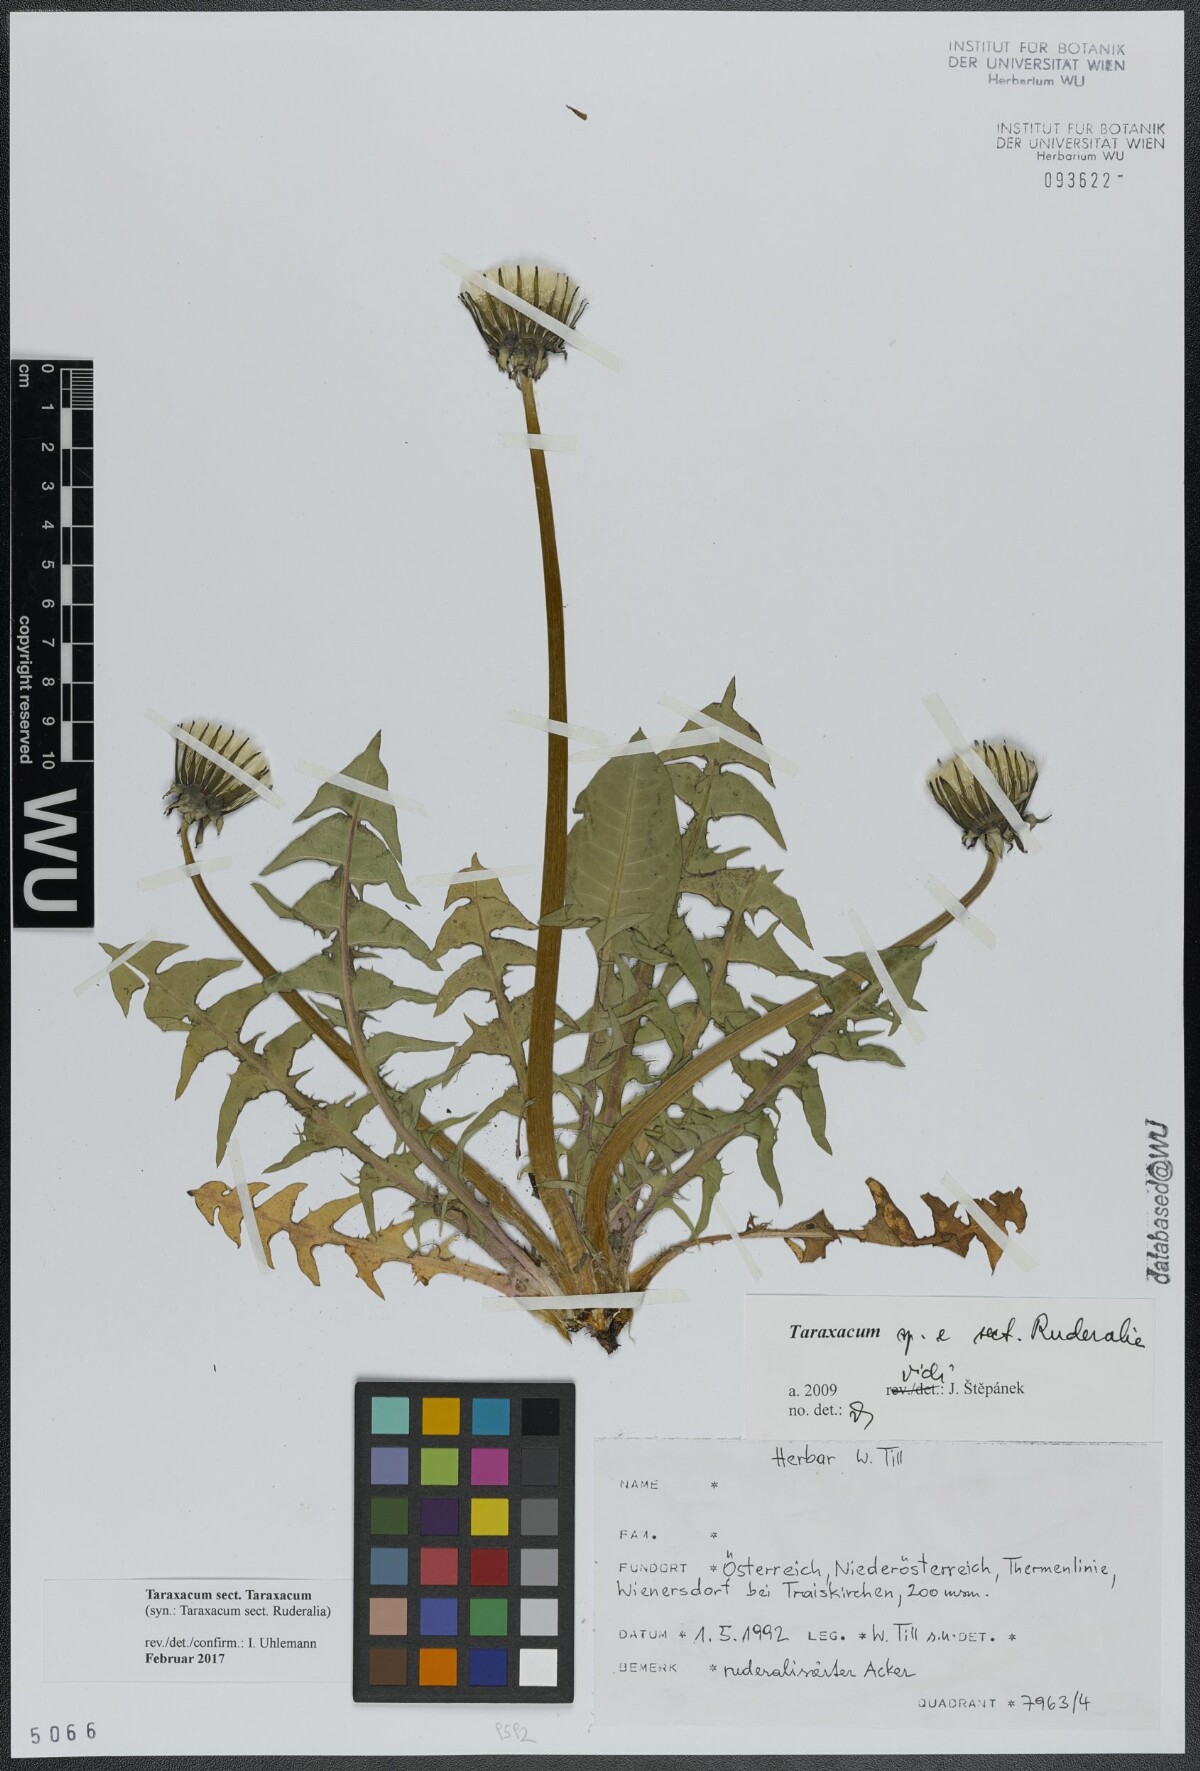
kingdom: Plantae
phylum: Tracheophyta
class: Magnoliopsida
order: Asterales
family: Asteraceae
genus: Taraxacum
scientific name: Taraxacum
